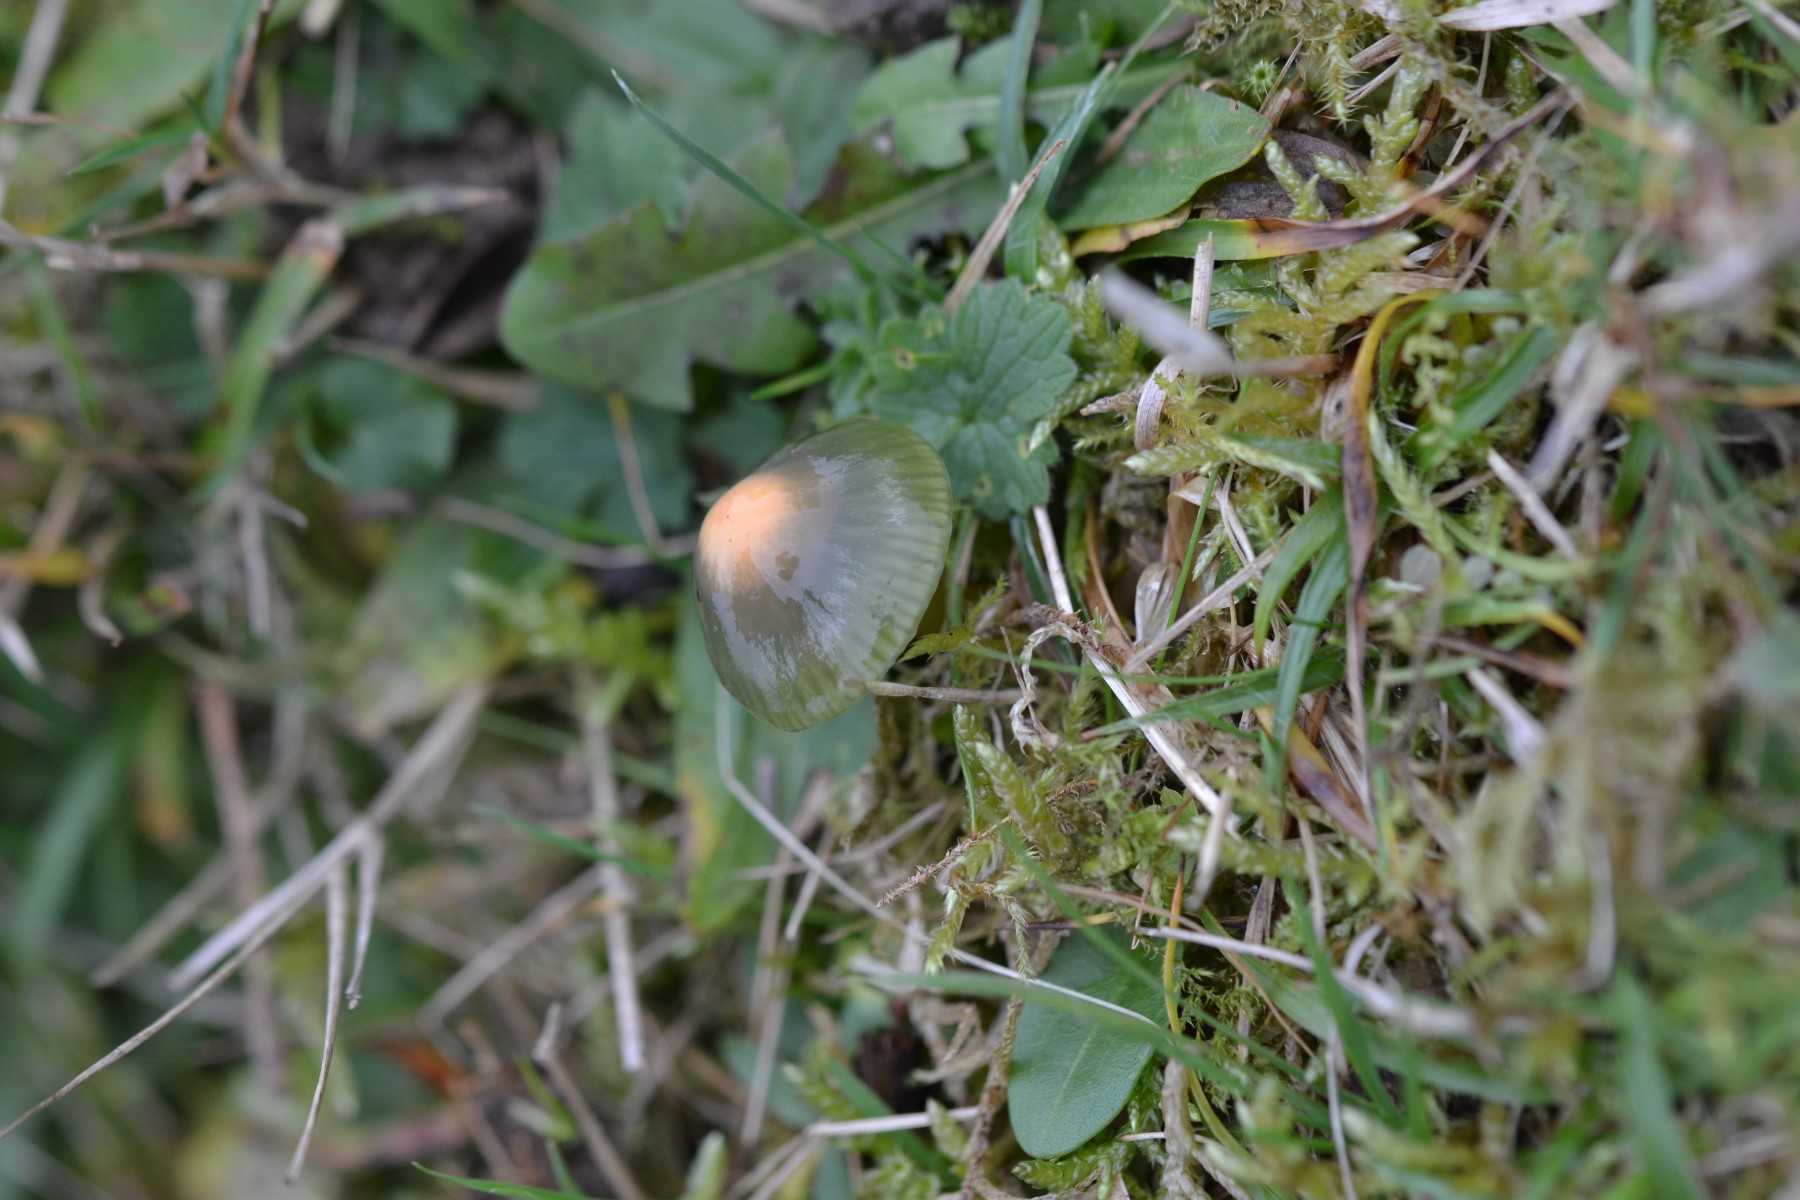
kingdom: Fungi
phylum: Basidiomycota
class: Agaricomycetes
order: Agaricales
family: Hygrophoraceae
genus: Gliophorus
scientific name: Gliophorus psittacinus
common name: papegøje-vokshat
